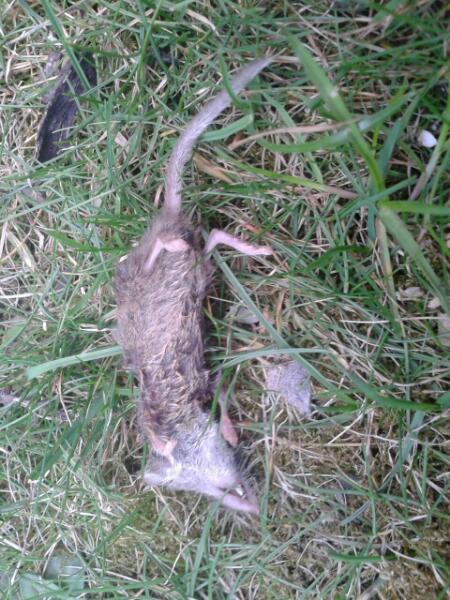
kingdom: Animalia
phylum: Chordata
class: Mammalia
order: Soricomorpha
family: Soricidae
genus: Crocidura
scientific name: Crocidura
